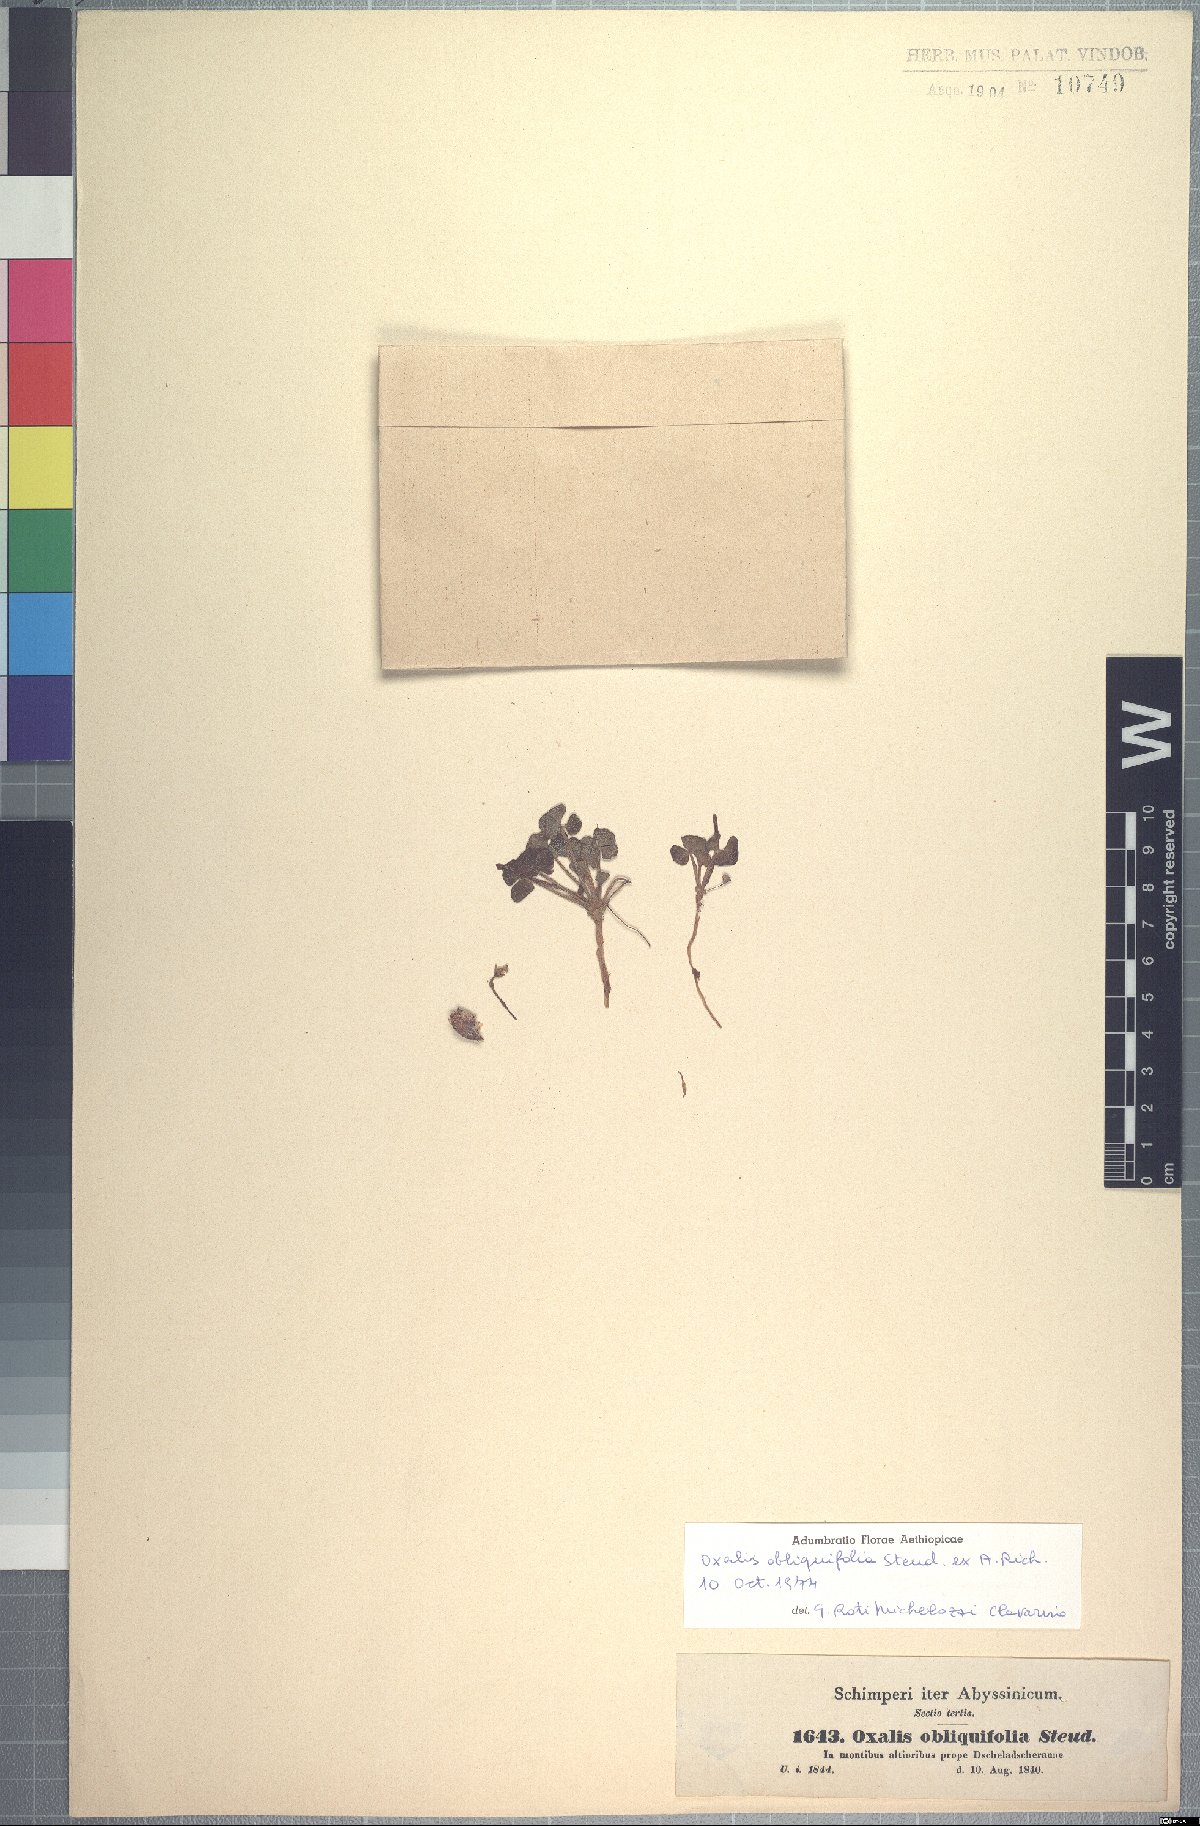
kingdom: Plantae
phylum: Tracheophyta
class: Magnoliopsida
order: Oxalidales
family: Oxalidaceae
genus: Oxalis
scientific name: Oxalis obliquifolia
